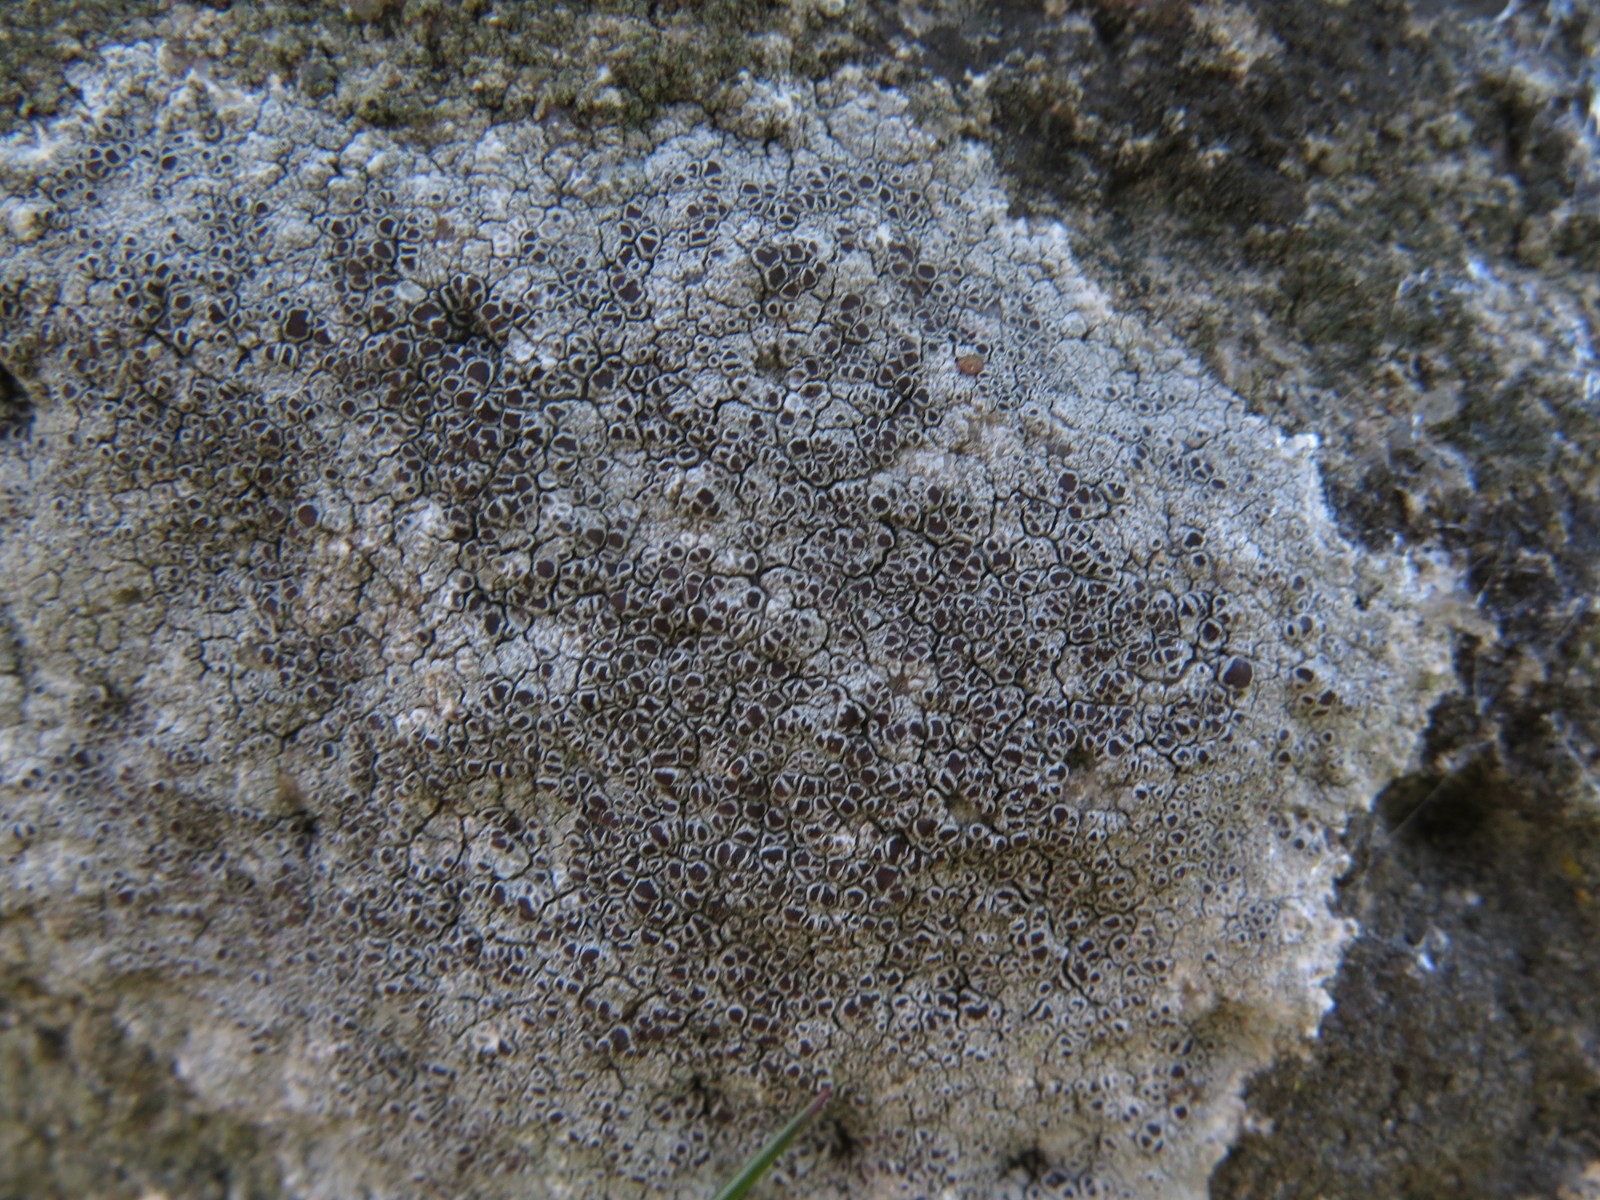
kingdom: Fungi
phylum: Ascomycota
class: Lecanoromycetes
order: Lecanorales
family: Lecanoraceae
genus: Lecanora
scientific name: Lecanora campestris
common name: mur-kantskivelav
